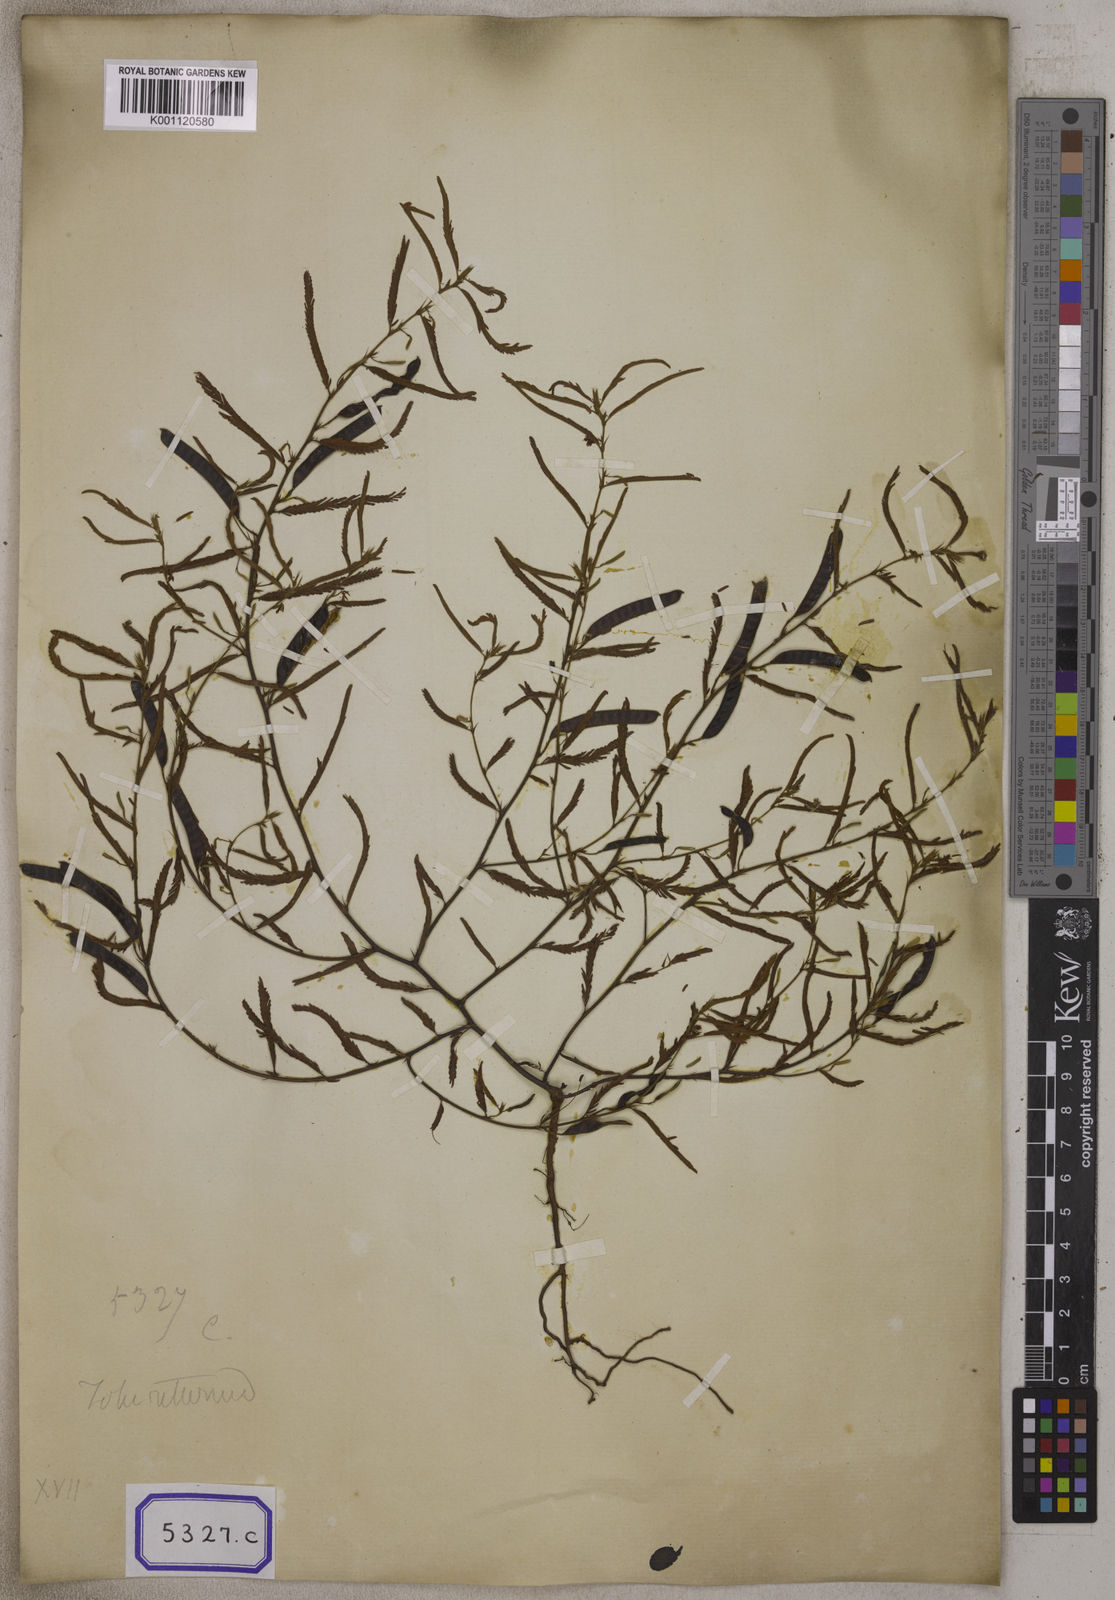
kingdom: Plantae
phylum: Tracheophyta
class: Magnoliopsida
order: Fabales
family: Fabaceae
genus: Chamaecrista
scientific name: Chamaecrista pumila
